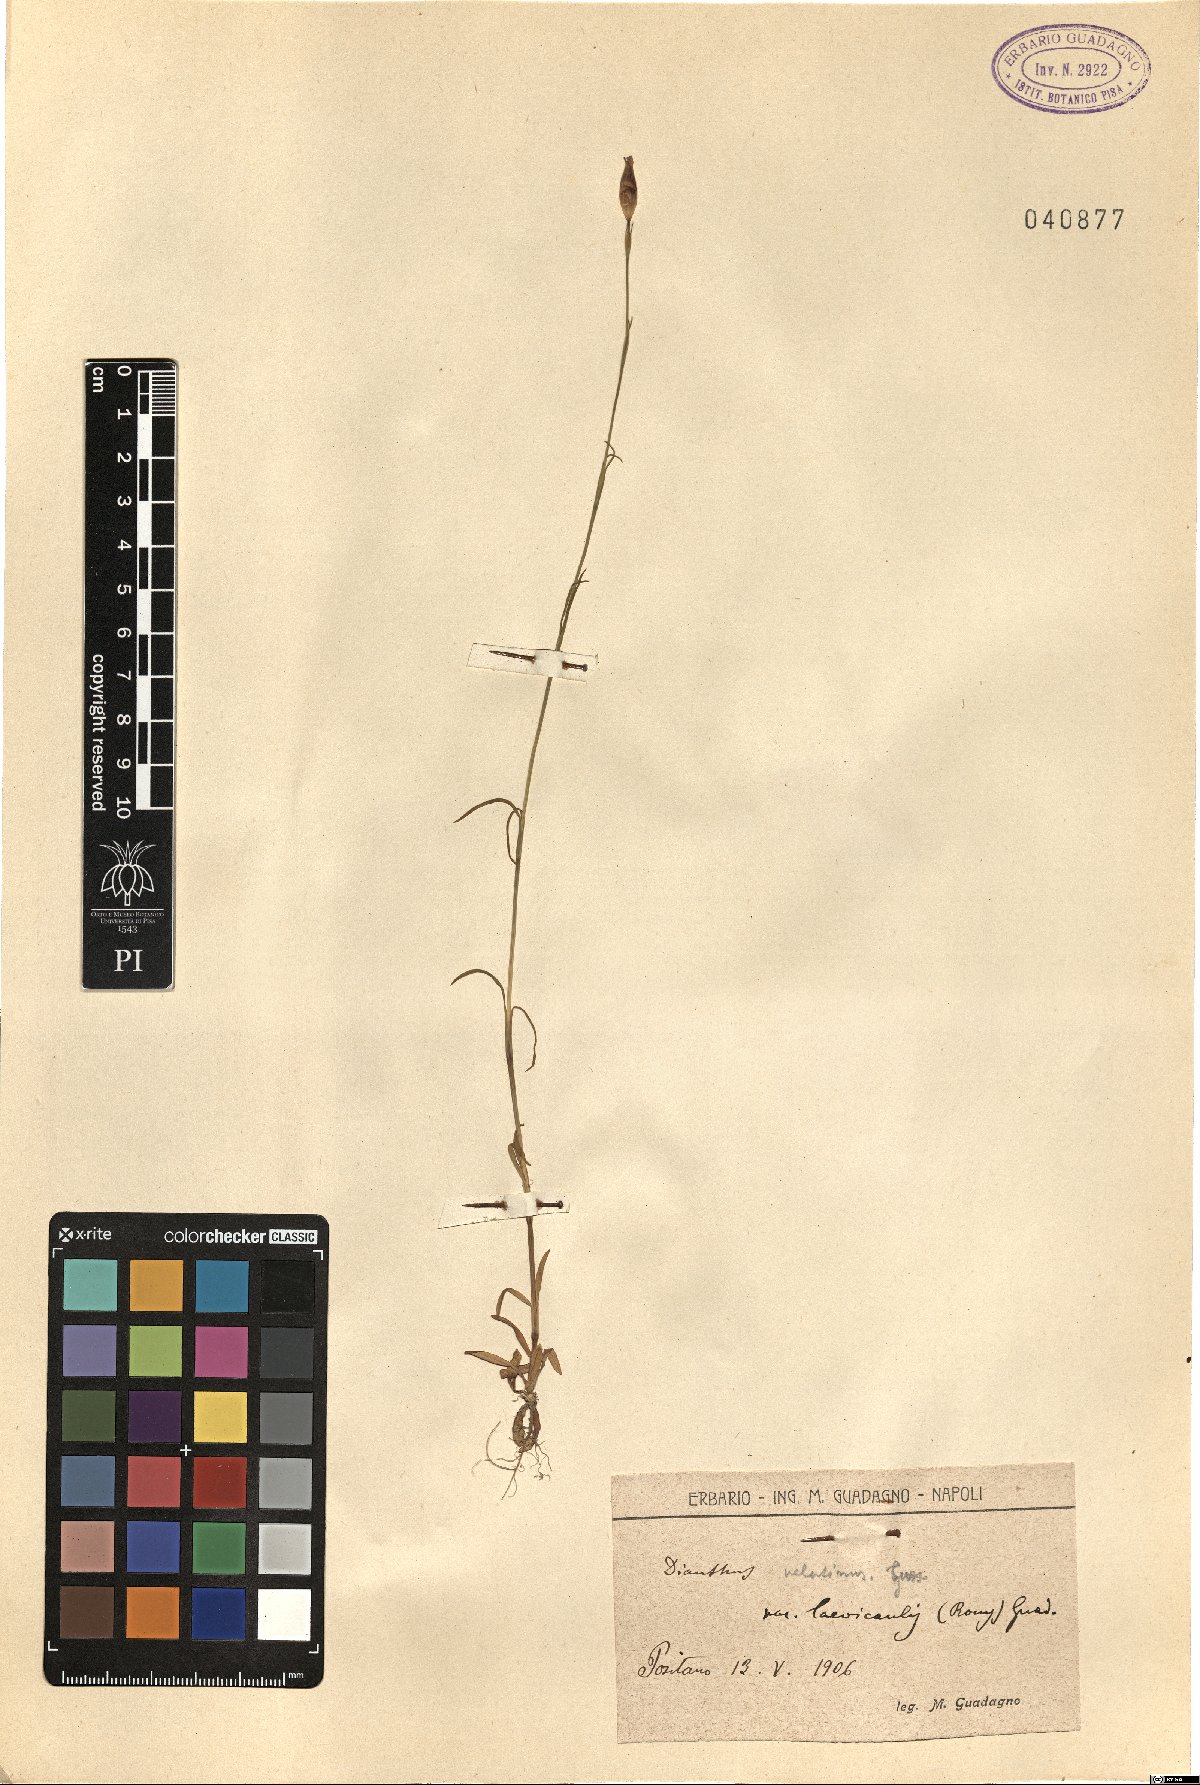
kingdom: Plantae
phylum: Tracheophyta
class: Magnoliopsida
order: Caryophyllales
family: Caryophyllaceae
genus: Petrorhagia
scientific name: Petrorhagia dubia
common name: Hairypink
